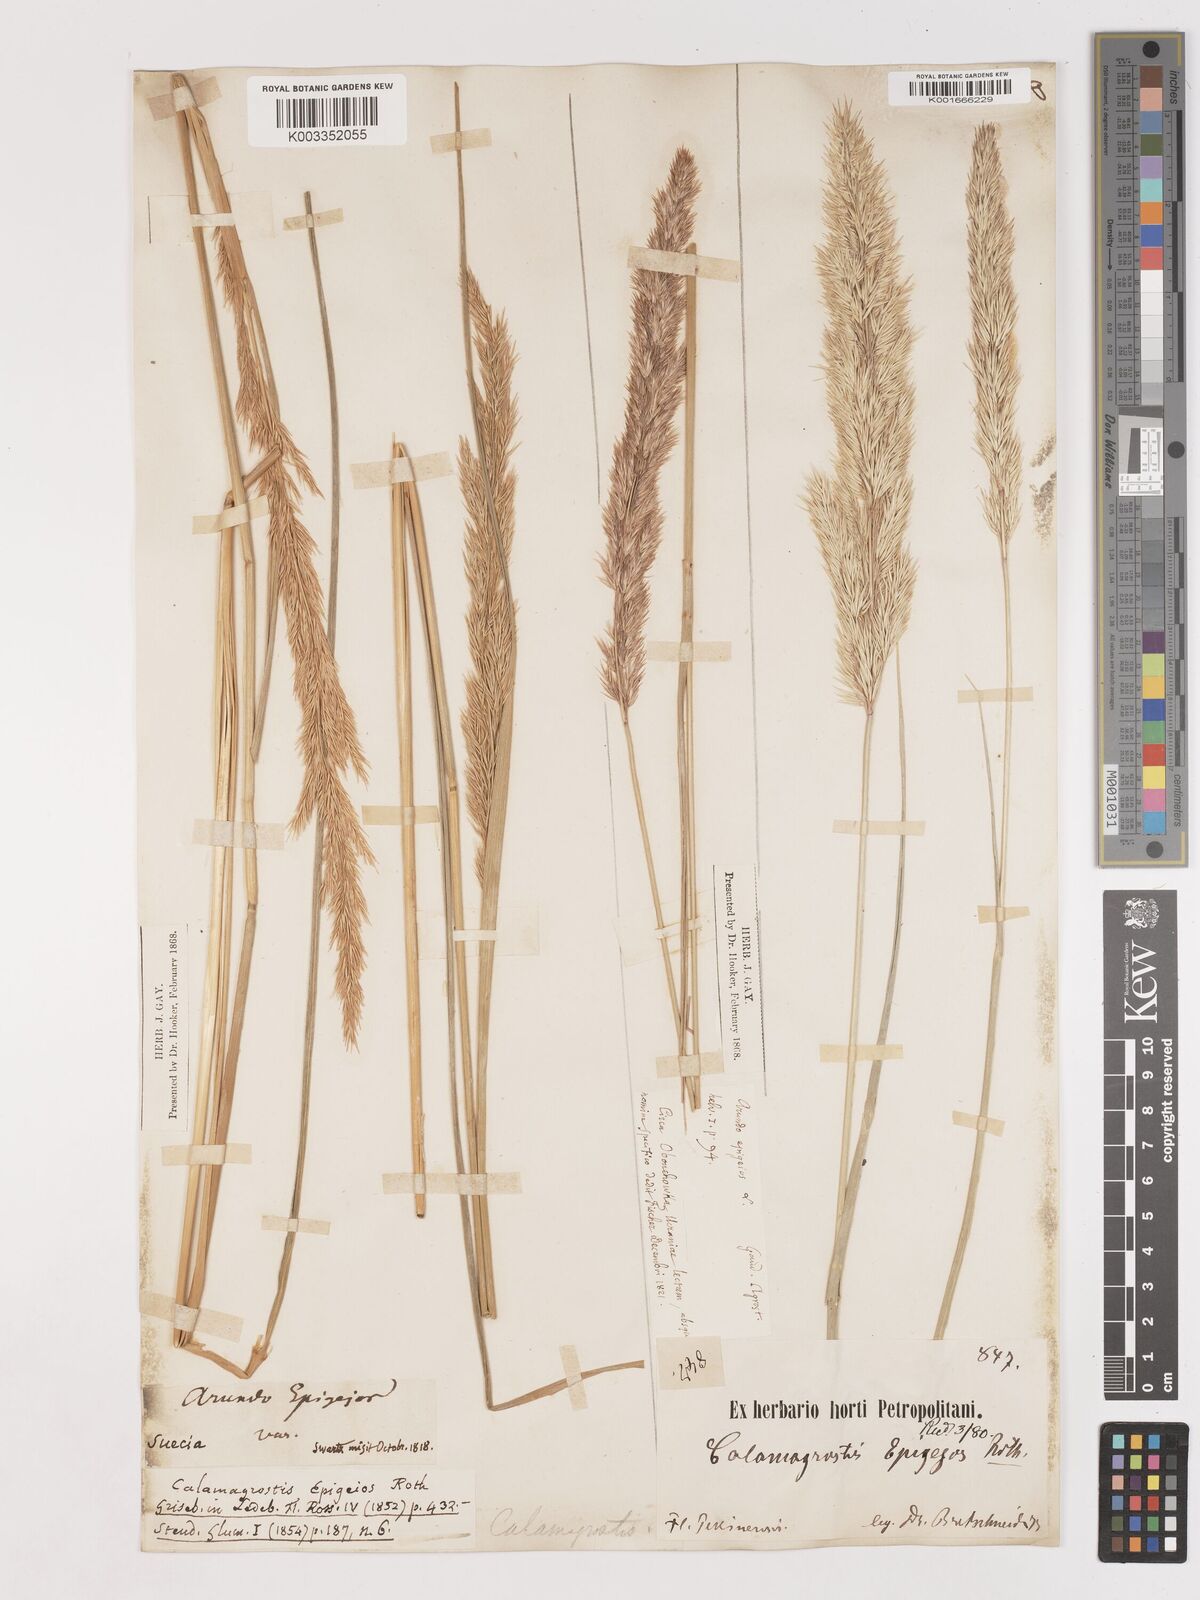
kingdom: Plantae
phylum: Tracheophyta
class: Liliopsida
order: Poales
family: Poaceae
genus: Calamagrostis
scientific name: Calamagrostis epigejos
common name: Wood small-reed
